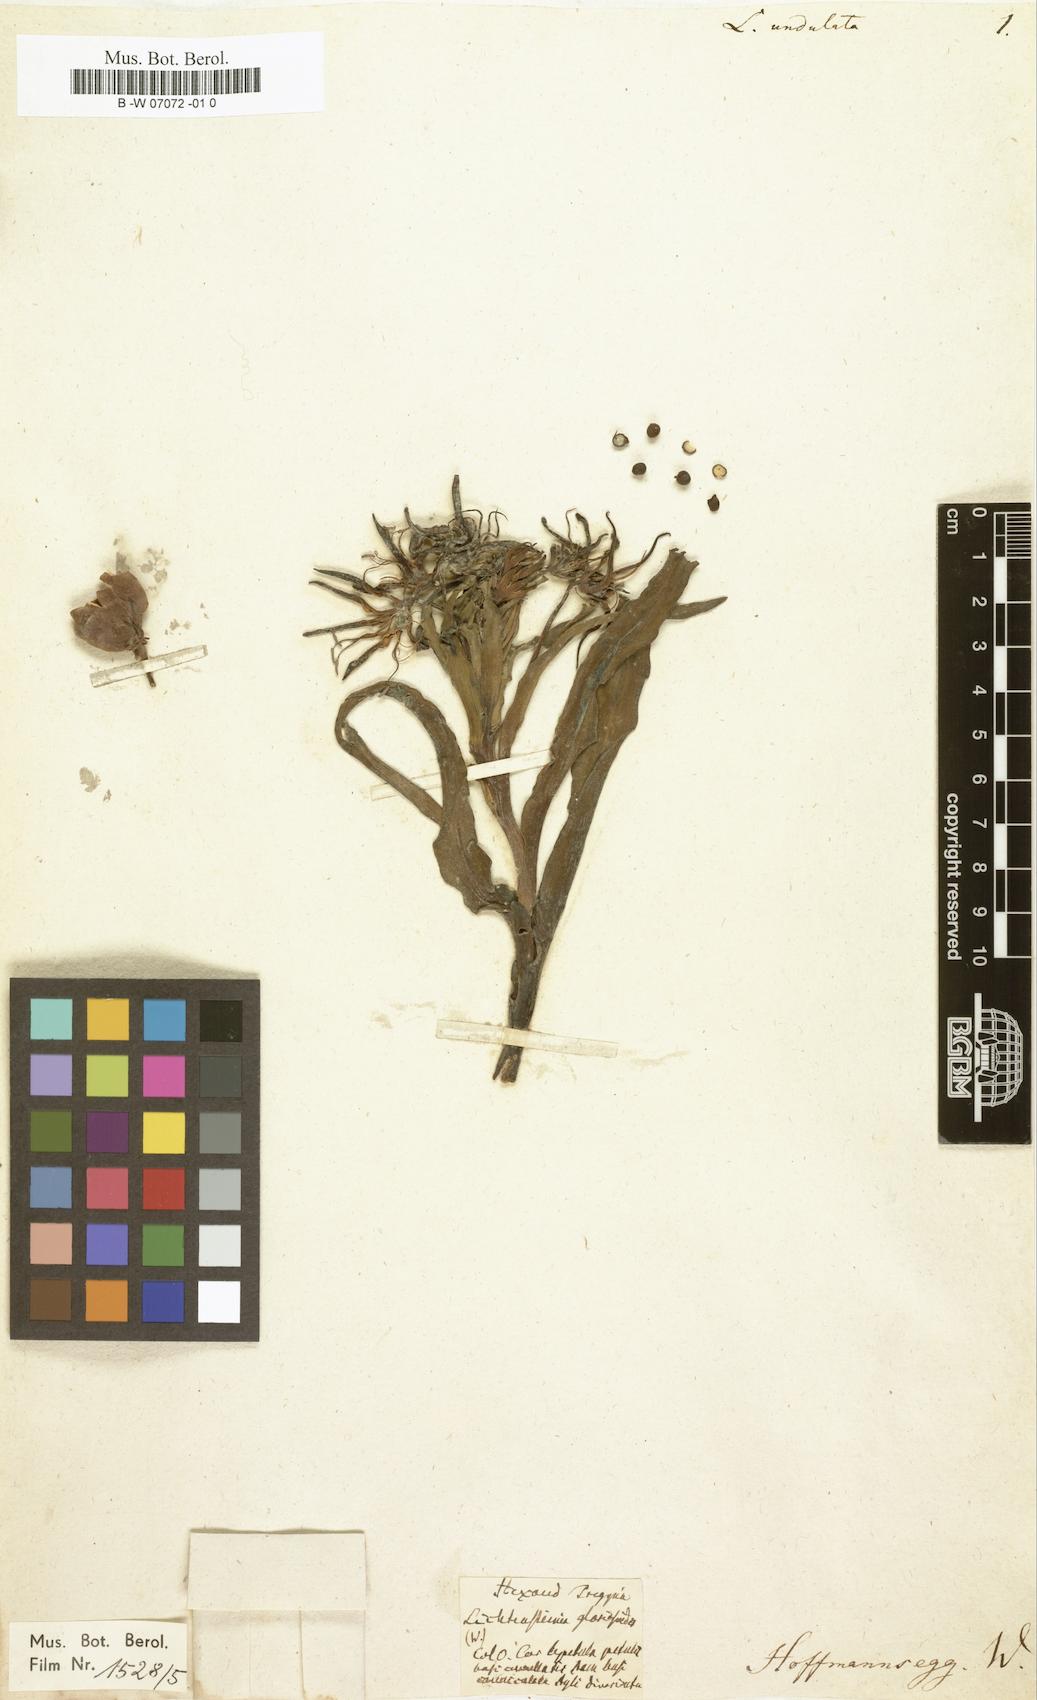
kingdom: Plantae
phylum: Tracheophyta
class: Liliopsida
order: Liliales
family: Colchicaceae
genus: Ornithoglossum
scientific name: Ornithoglossum undulatum
